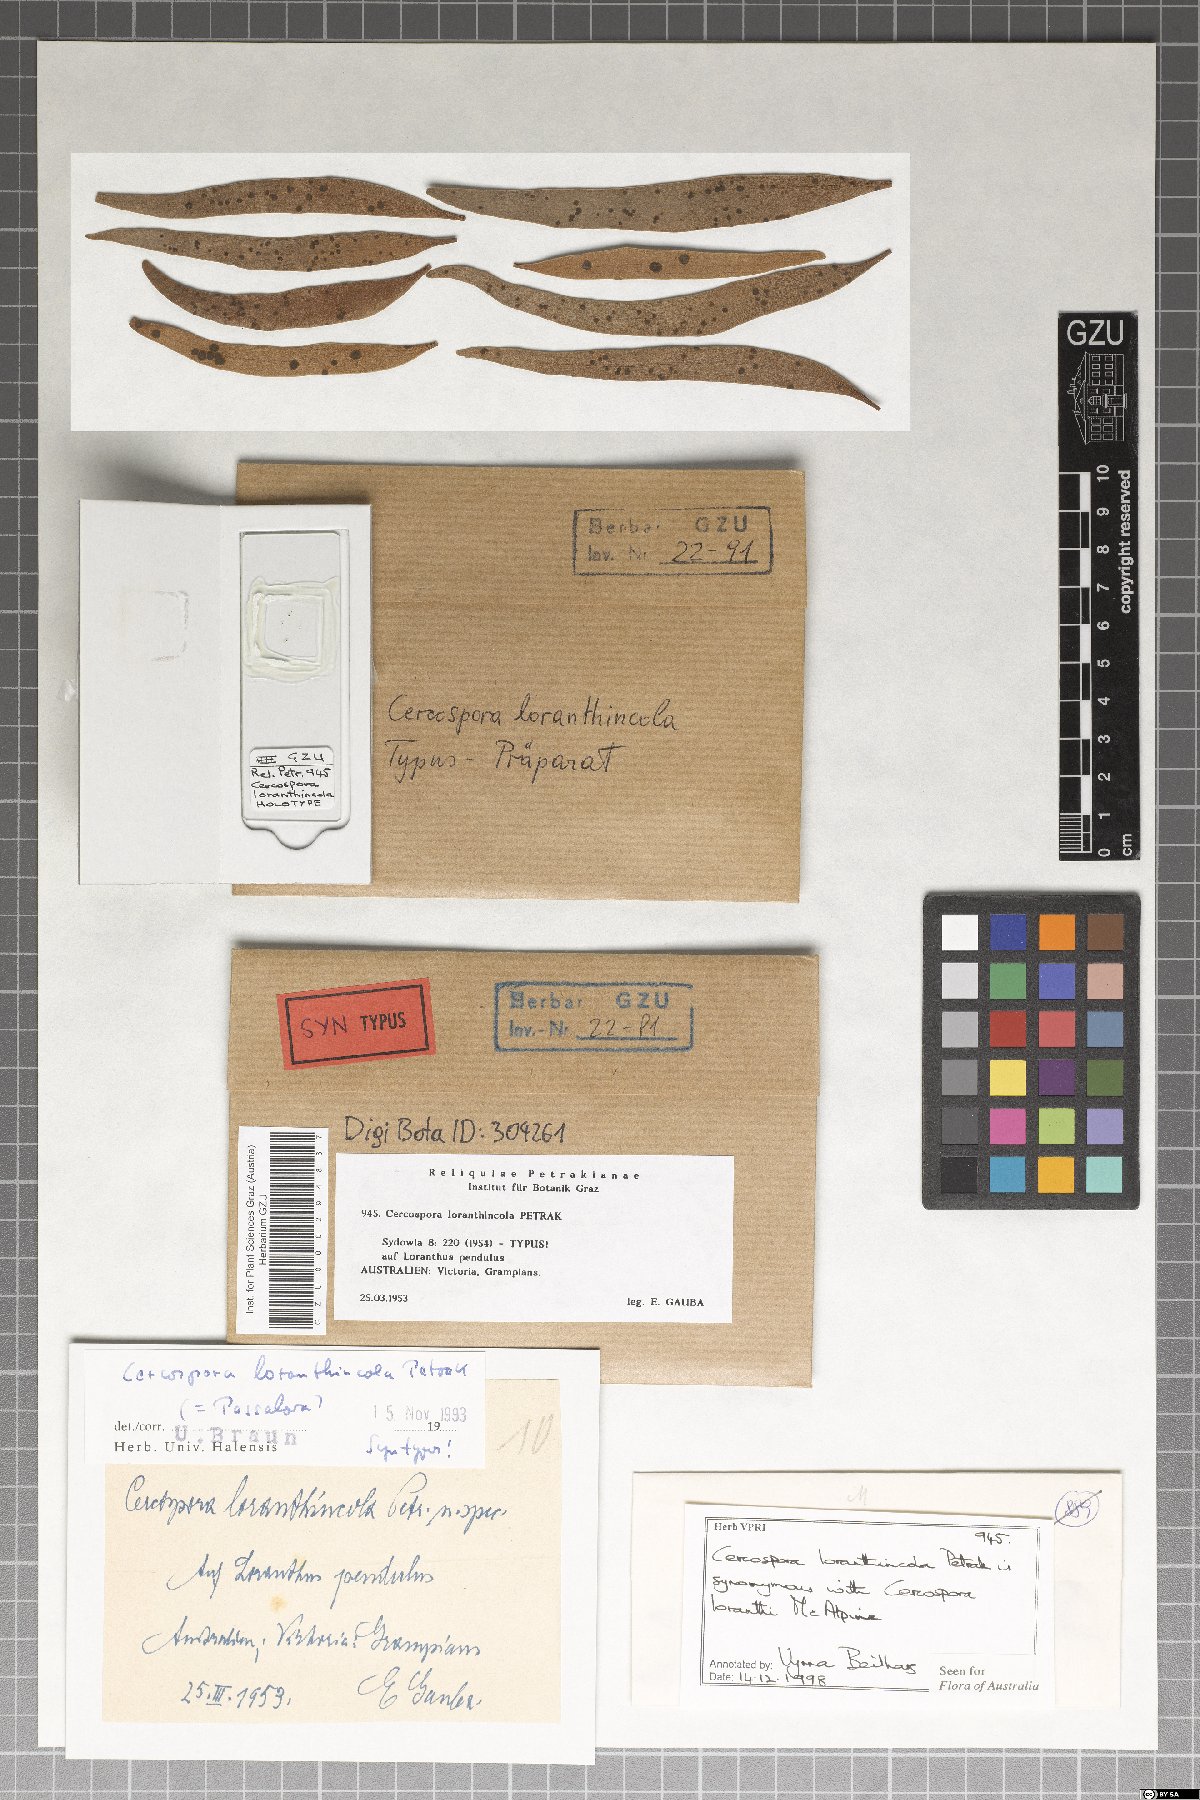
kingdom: Fungi
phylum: Ascomycota
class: Dothideomycetes
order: Mycosphaerellales
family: Mycosphaerellaceae
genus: Passalora
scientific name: Passalora loranthincola
